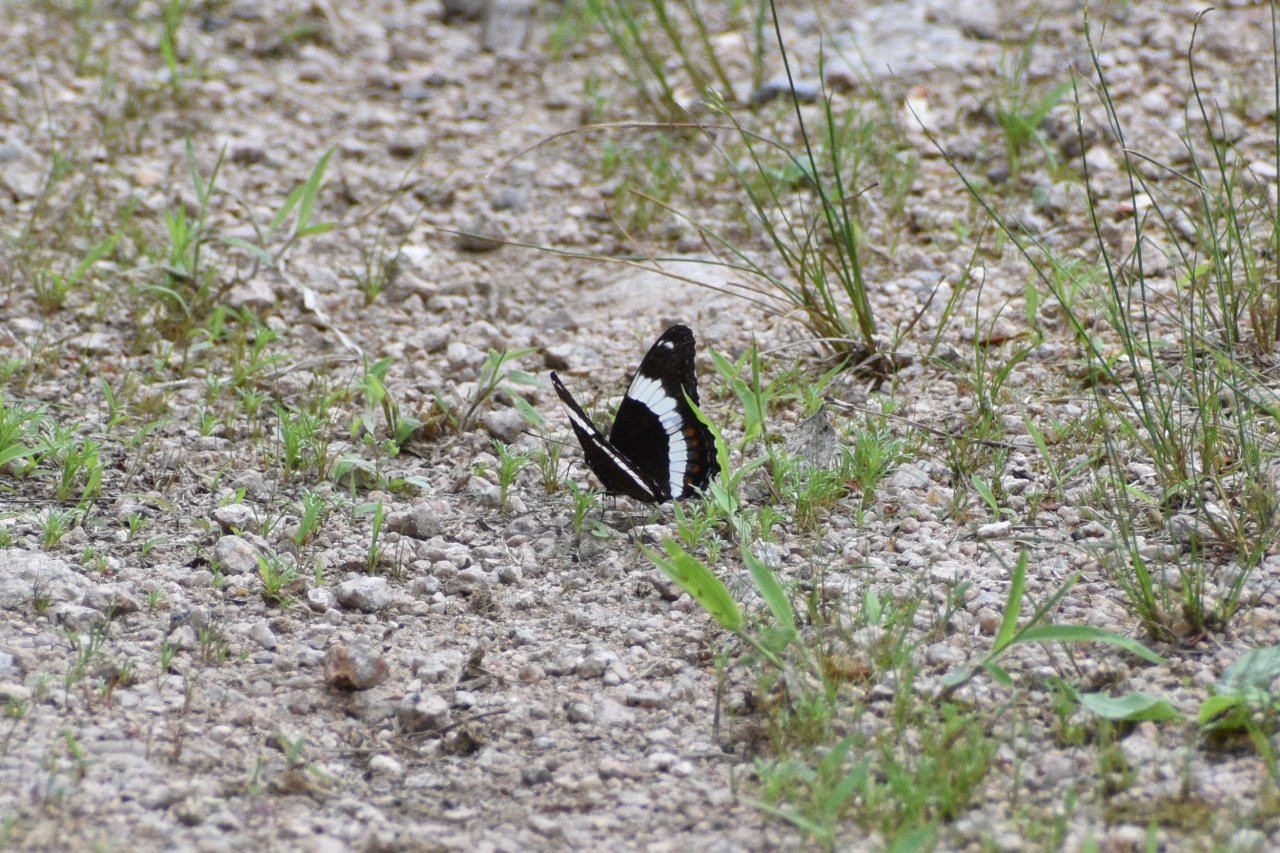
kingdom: Animalia
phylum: Arthropoda
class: Insecta
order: Lepidoptera
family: Nymphalidae
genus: Limenitis
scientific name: Limenitis arthemis
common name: Red-spotted Admiral
